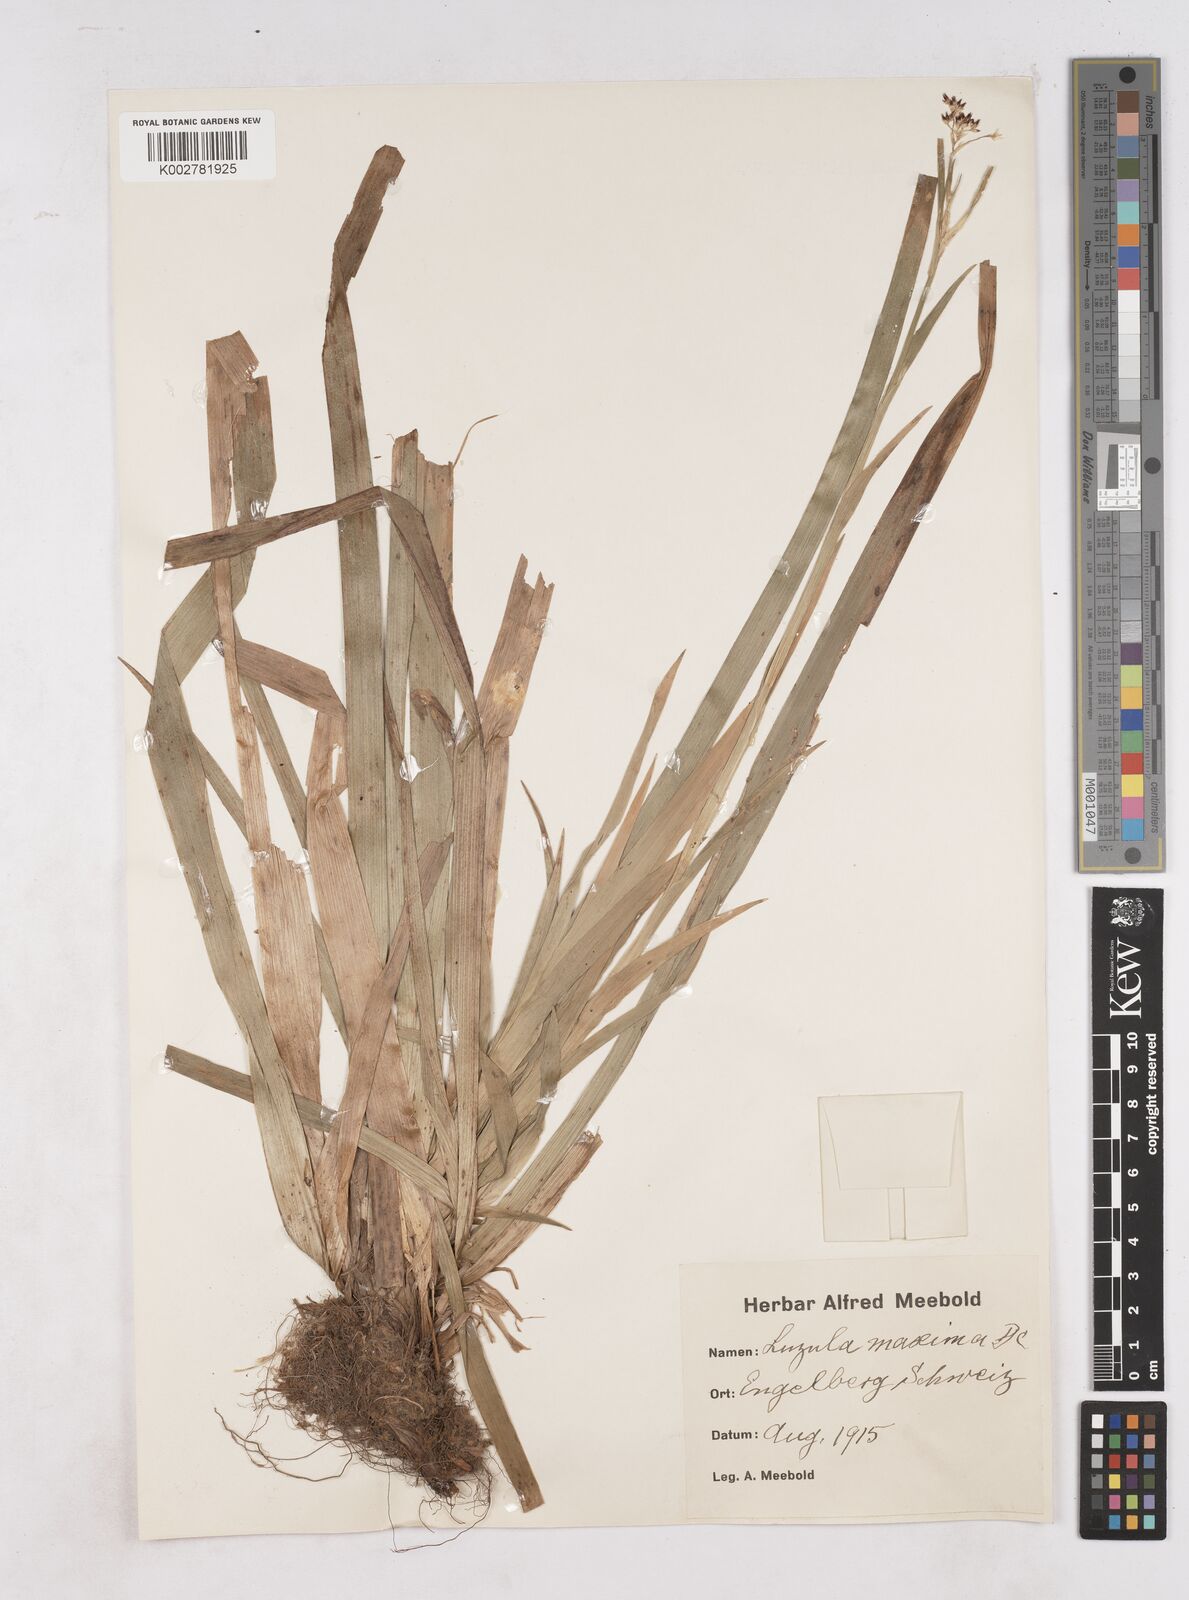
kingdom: Plantae
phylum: Tracheophyta
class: Liliopsida
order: Poales
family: Juncaceae
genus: Luzula
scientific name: Luzula sylvatica
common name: Great wood-rush
